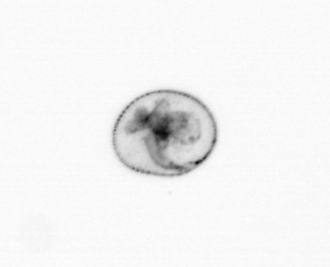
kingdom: Chromista
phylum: Myzozoa
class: Dinophyceae
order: Noctilucales
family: Noctilucaceae
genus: Noctiluca
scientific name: Noctiluca scintillans
